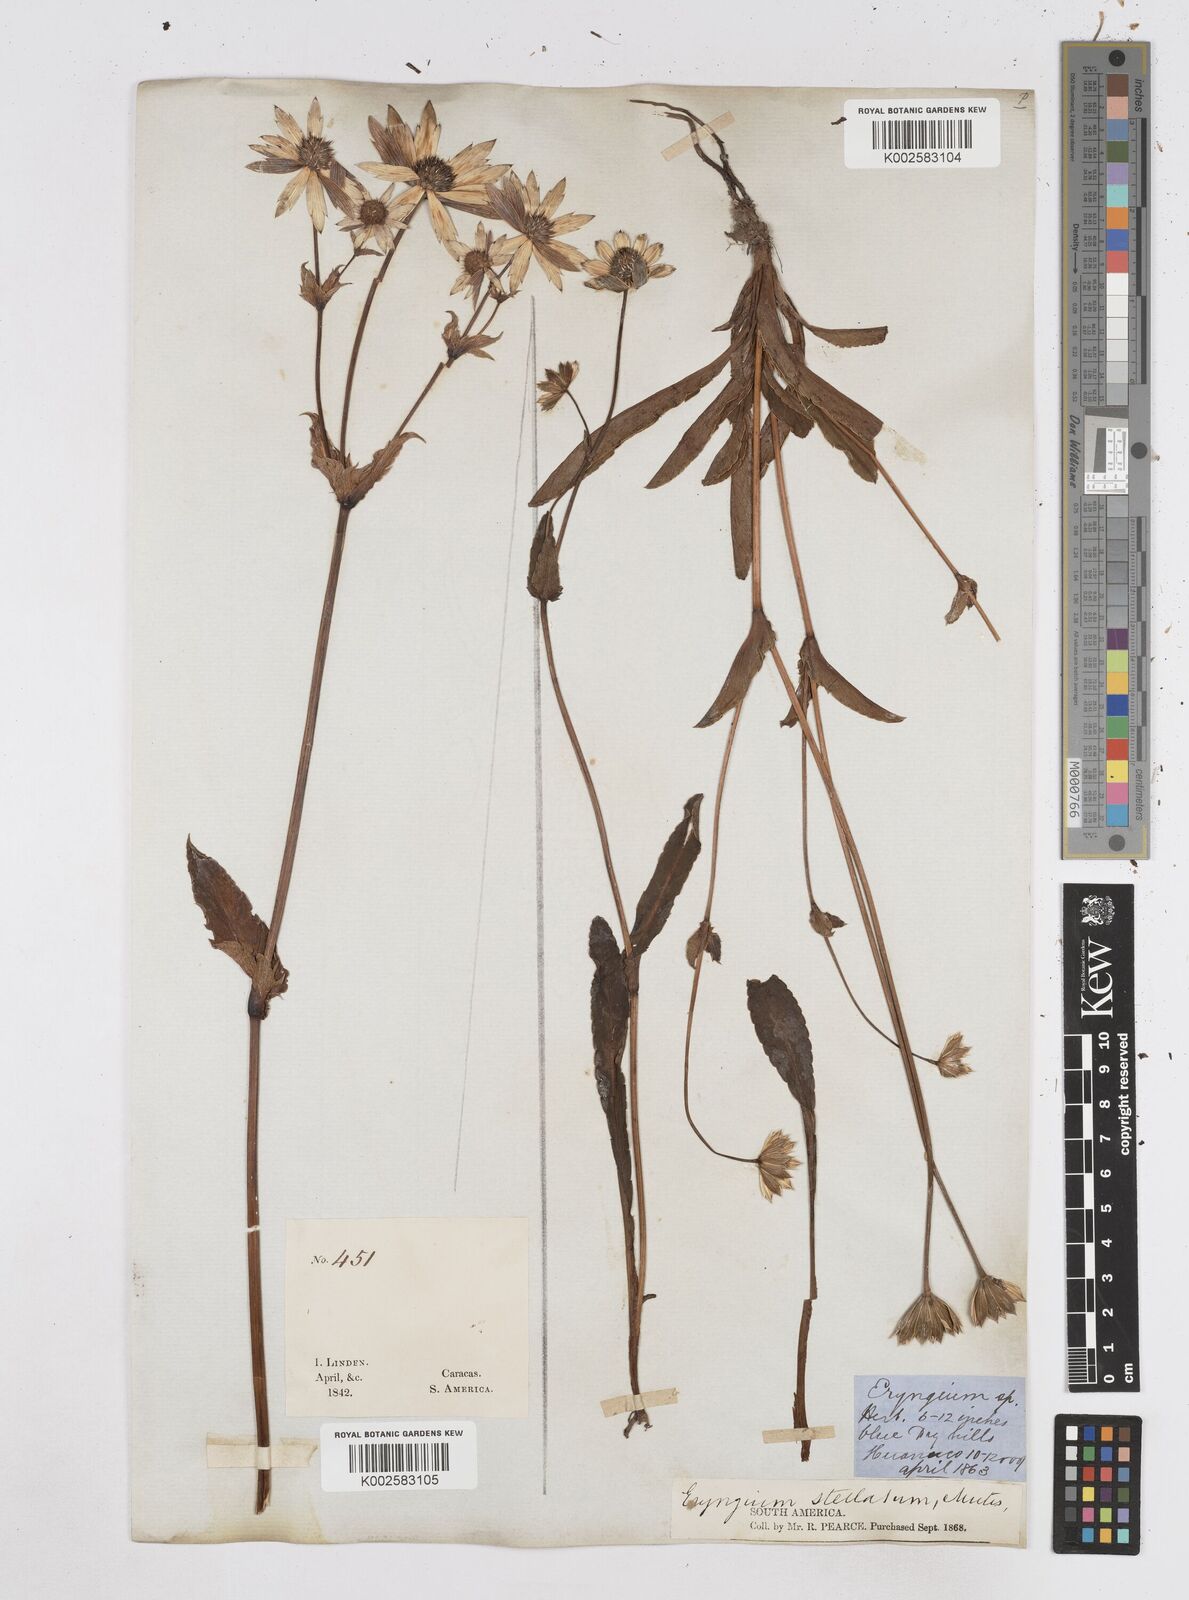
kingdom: Plantae
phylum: Tracheophyta
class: Magnoliopsida
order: Apiales
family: Apiaceae
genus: Eryngium
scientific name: Eryngium humile
